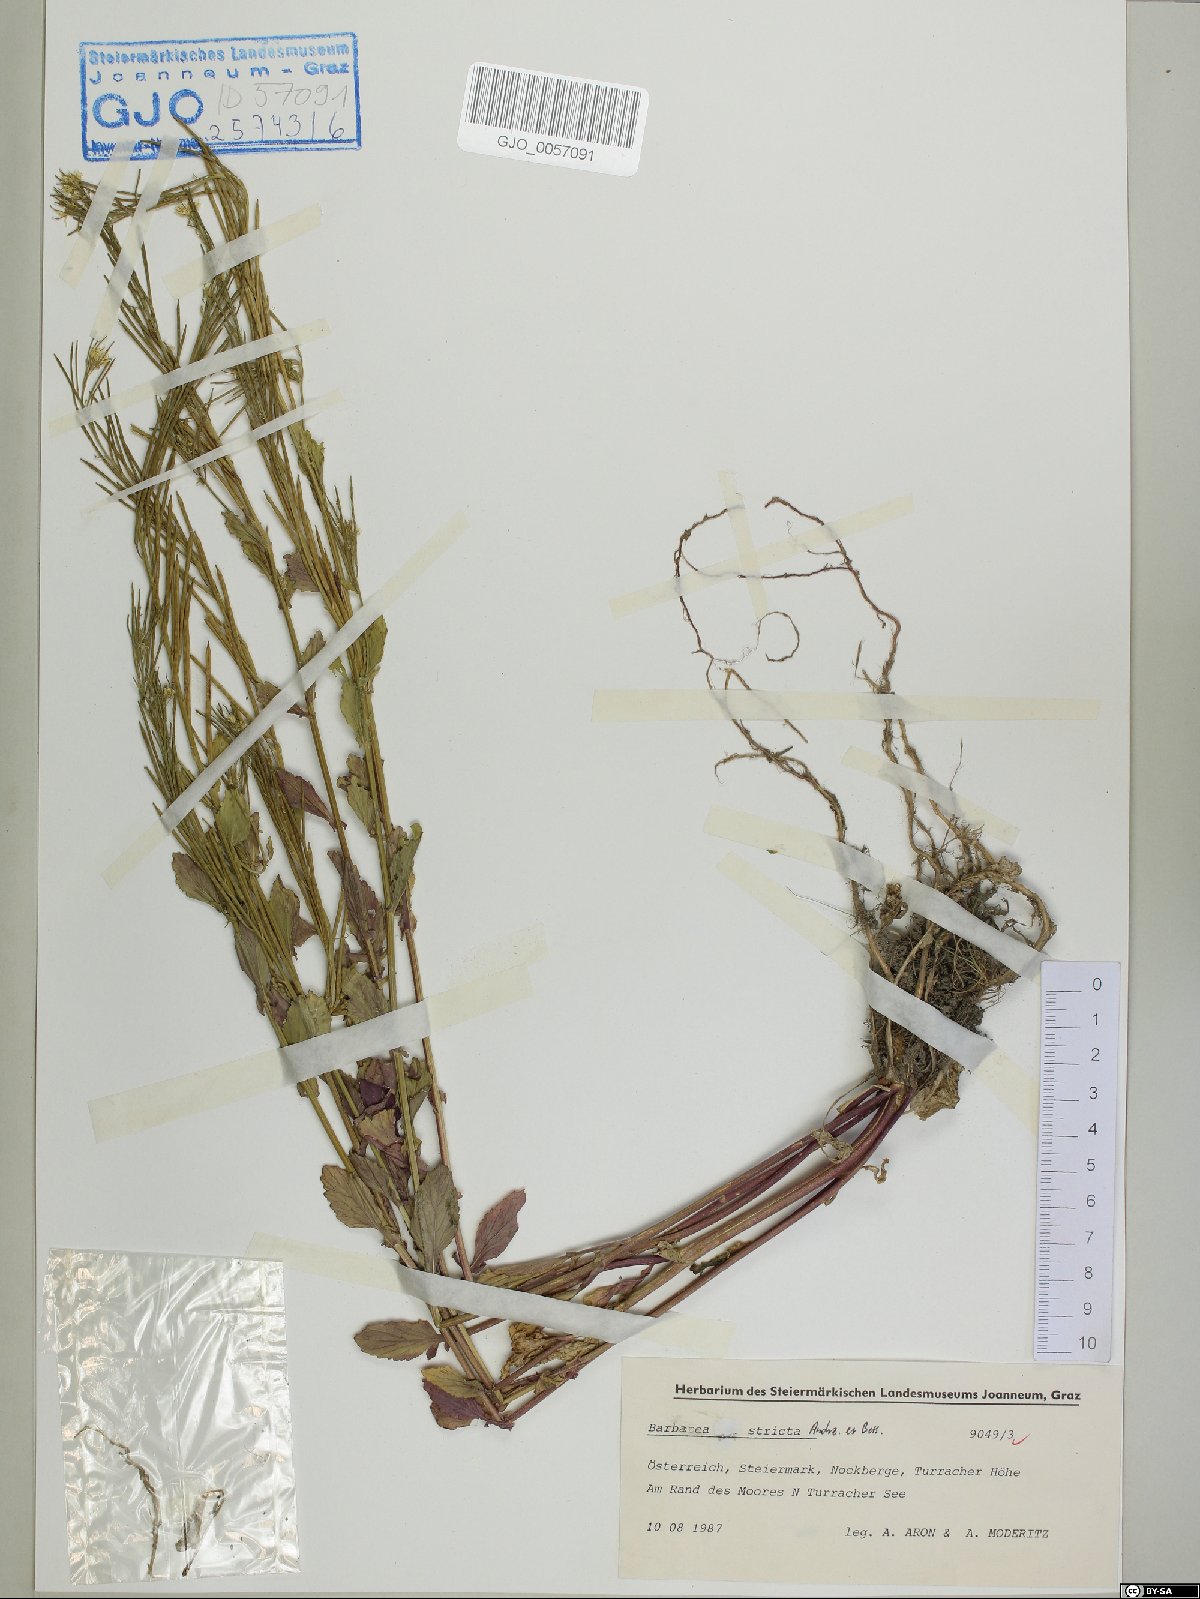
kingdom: Plantae
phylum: Tracheophyta
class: Magnoliopsida
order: Brassicales
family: Brassicaceae
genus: Barbarea
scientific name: Barbarea stricta
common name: Small-flowered winter-cress
